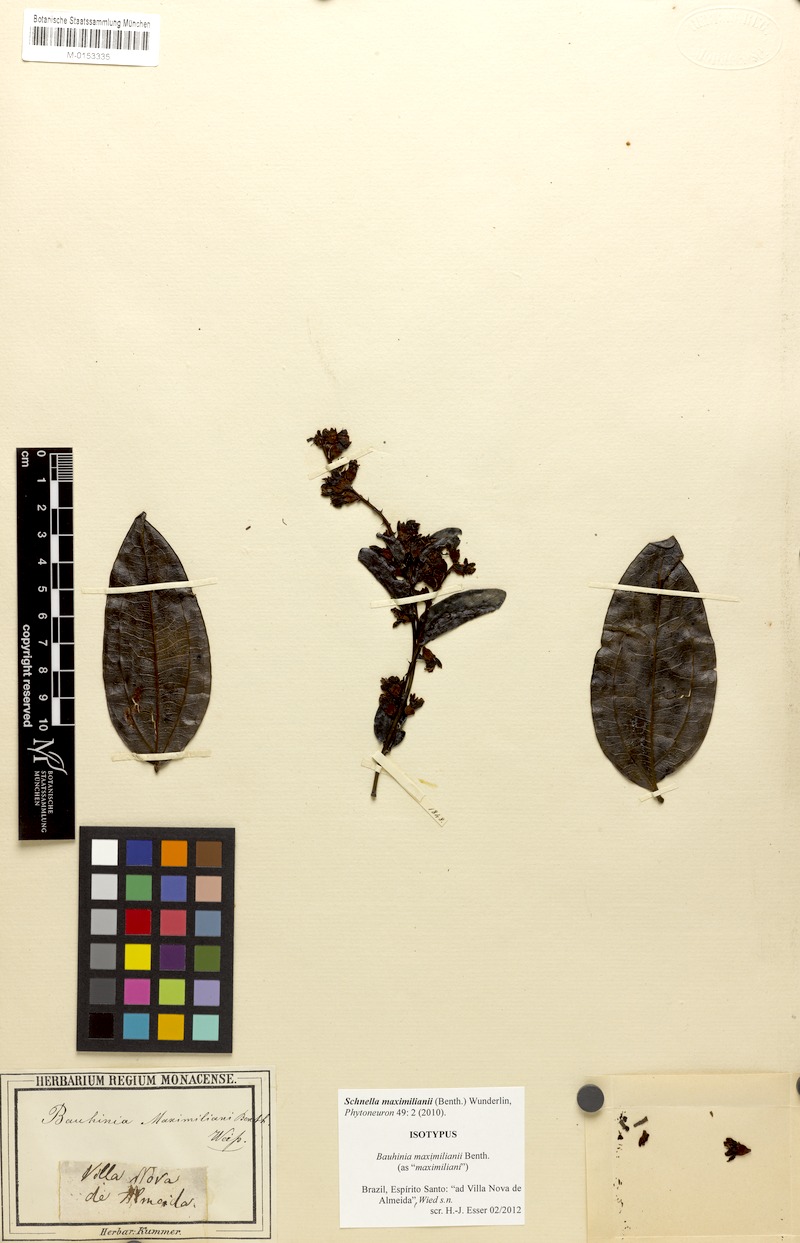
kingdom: Plantae
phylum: Tracheophyta
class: Magnoliopsida
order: Fabales
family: Fabaceae
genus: Schnella
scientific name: Schnella maximiliani
